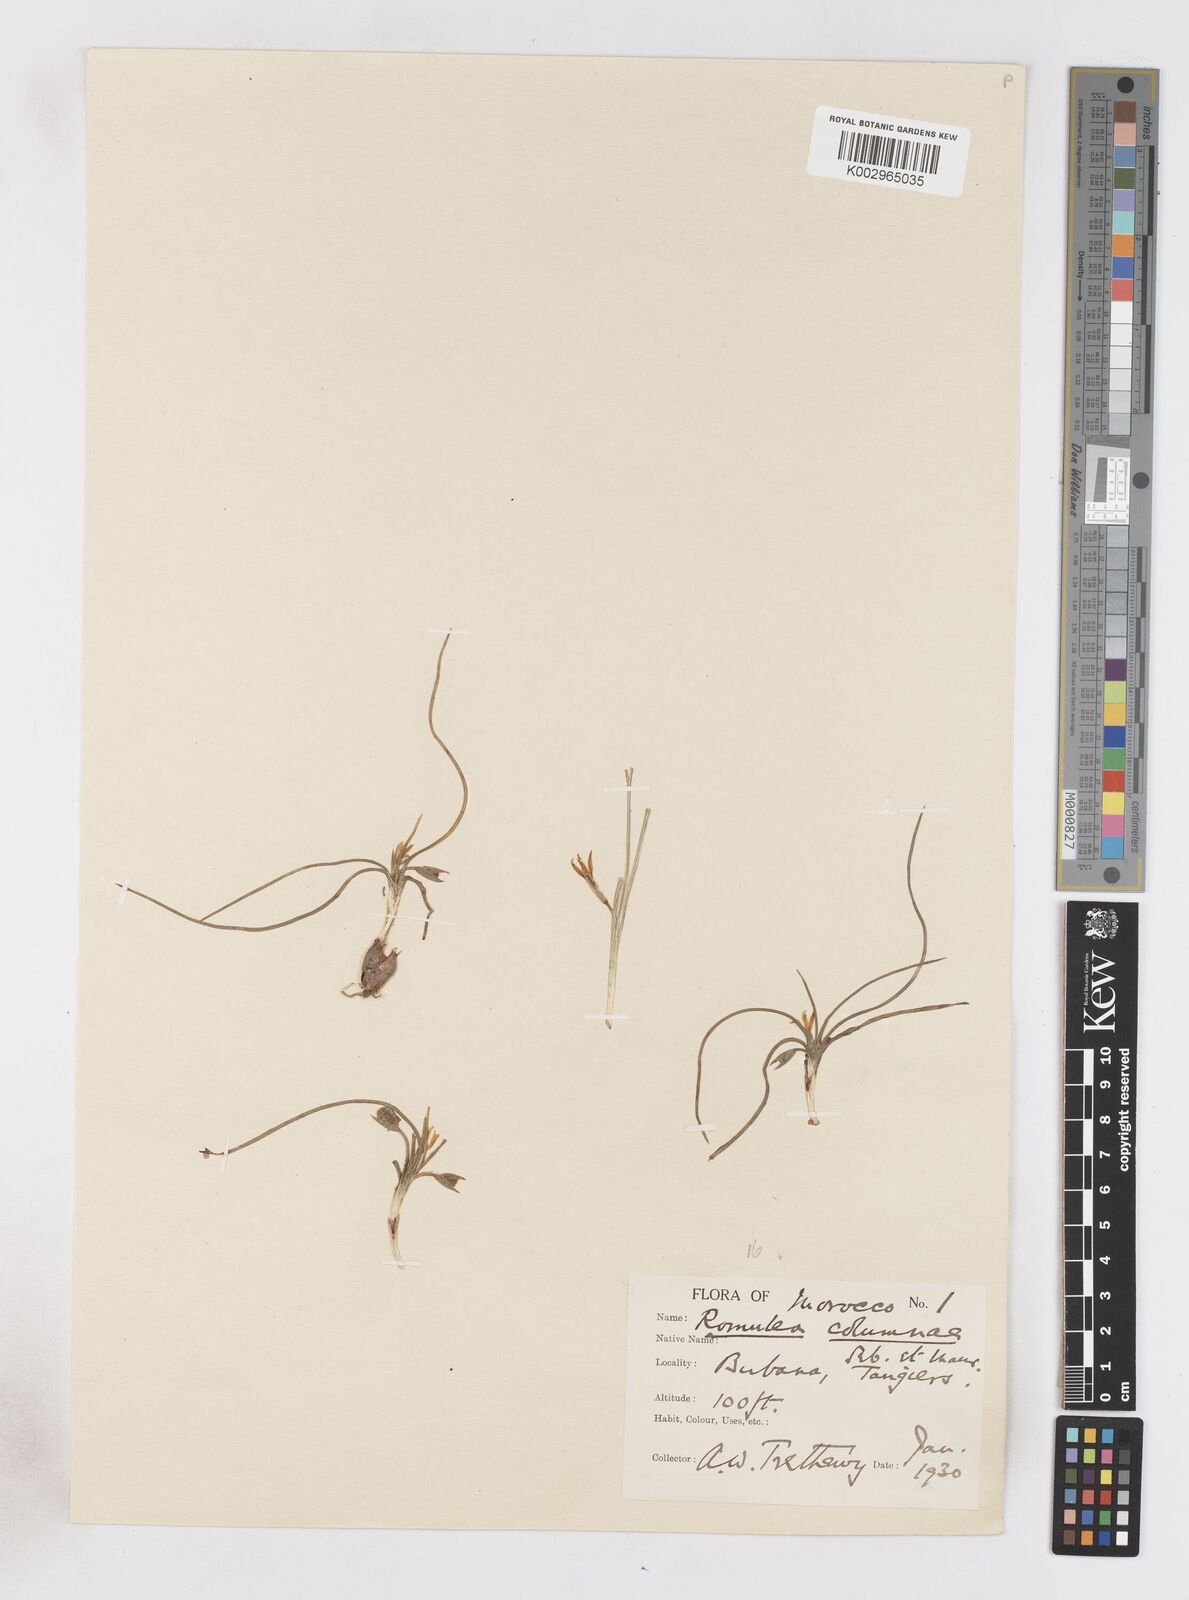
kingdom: Plantae
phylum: Tracheophyta
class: Liliopsida
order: Asparagales
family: Iridaceae
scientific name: Iridaceae
